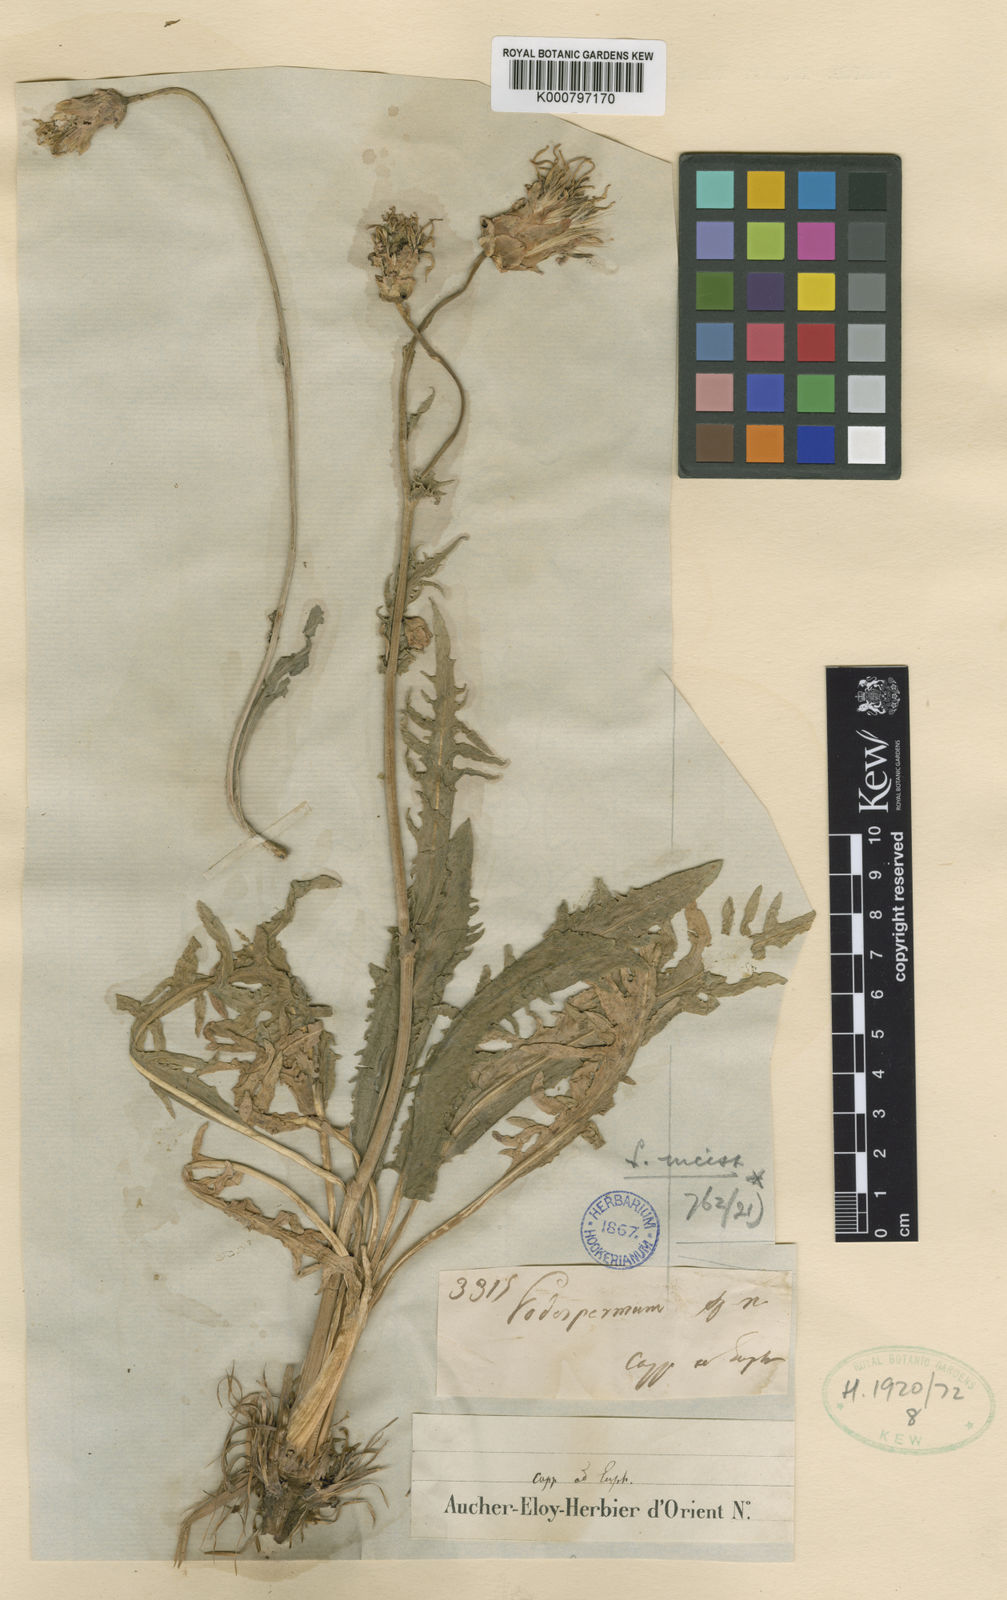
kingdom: Plantae
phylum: Tracheophyta
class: Magnoliopsida
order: Asterales
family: Asteraceae
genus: Aslia
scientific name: Aslia incisa
